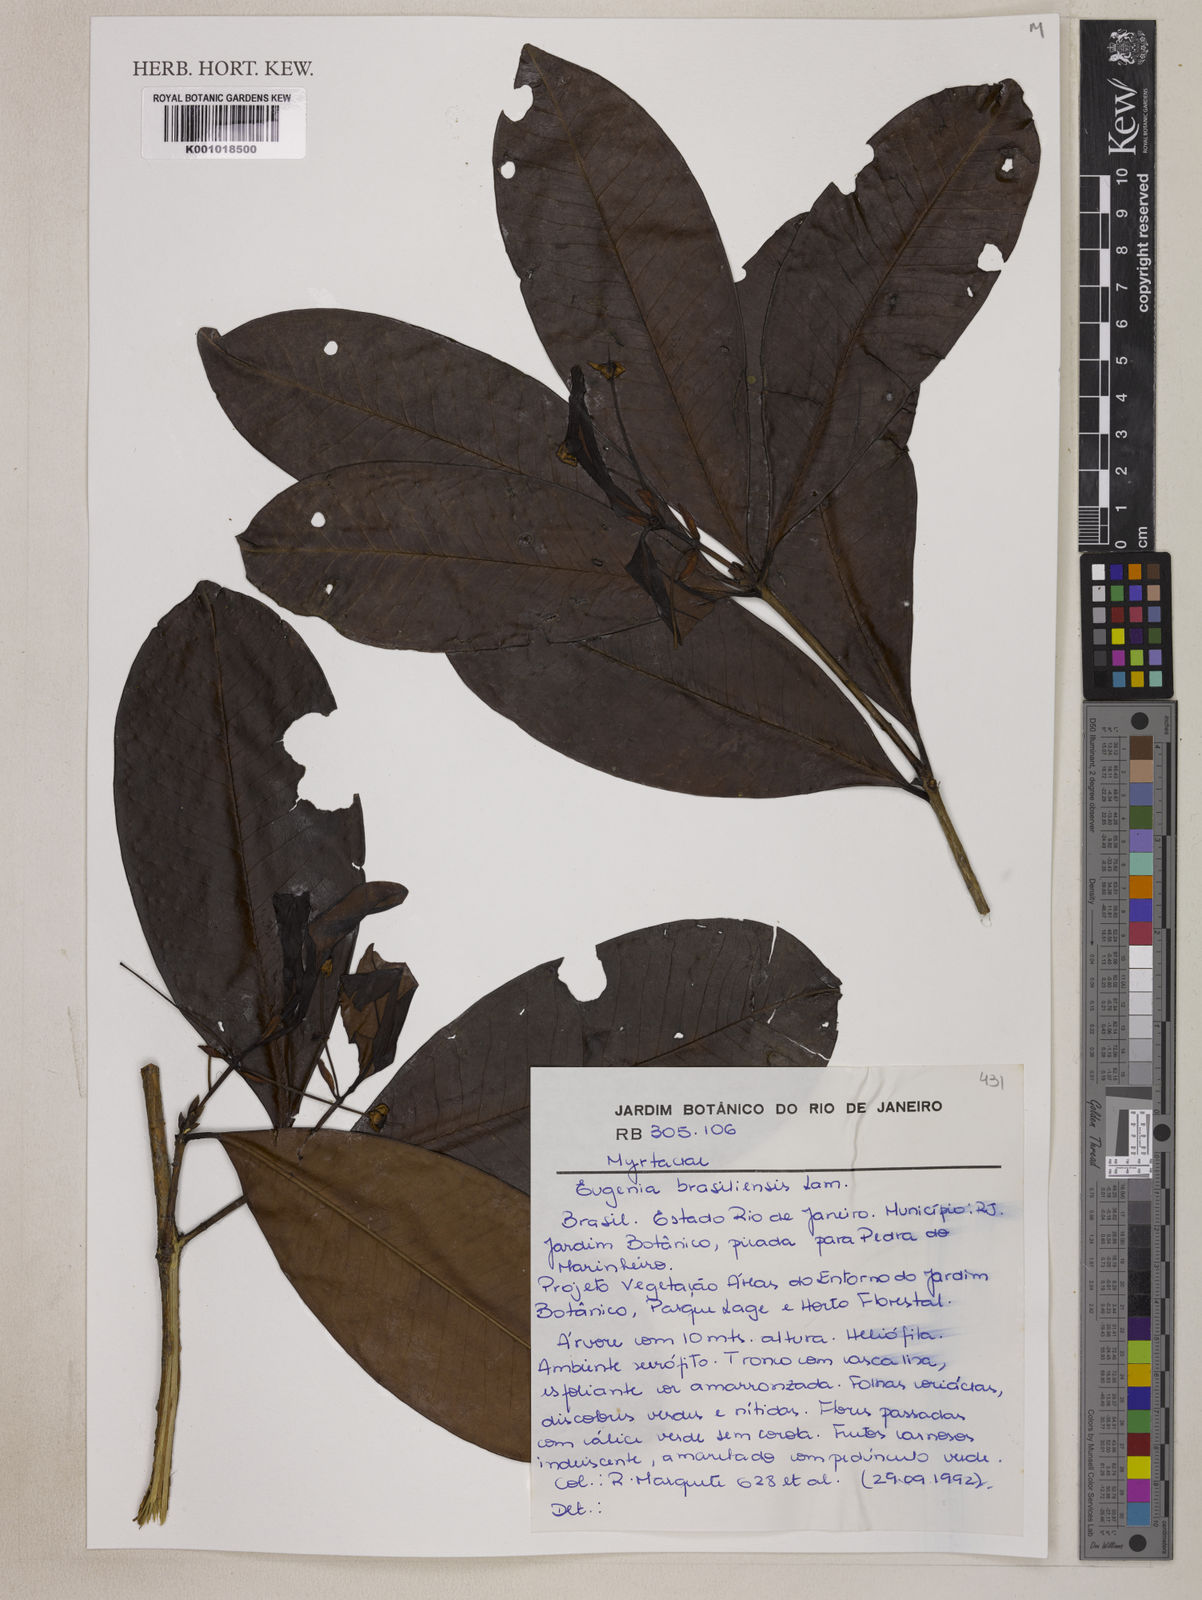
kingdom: Plantae
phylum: Tracheophyta
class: Magnoliopsida
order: Myrtales
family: Myrtaceae
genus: Eugenia
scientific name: Eugenia brasiliensis
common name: Grumichama
